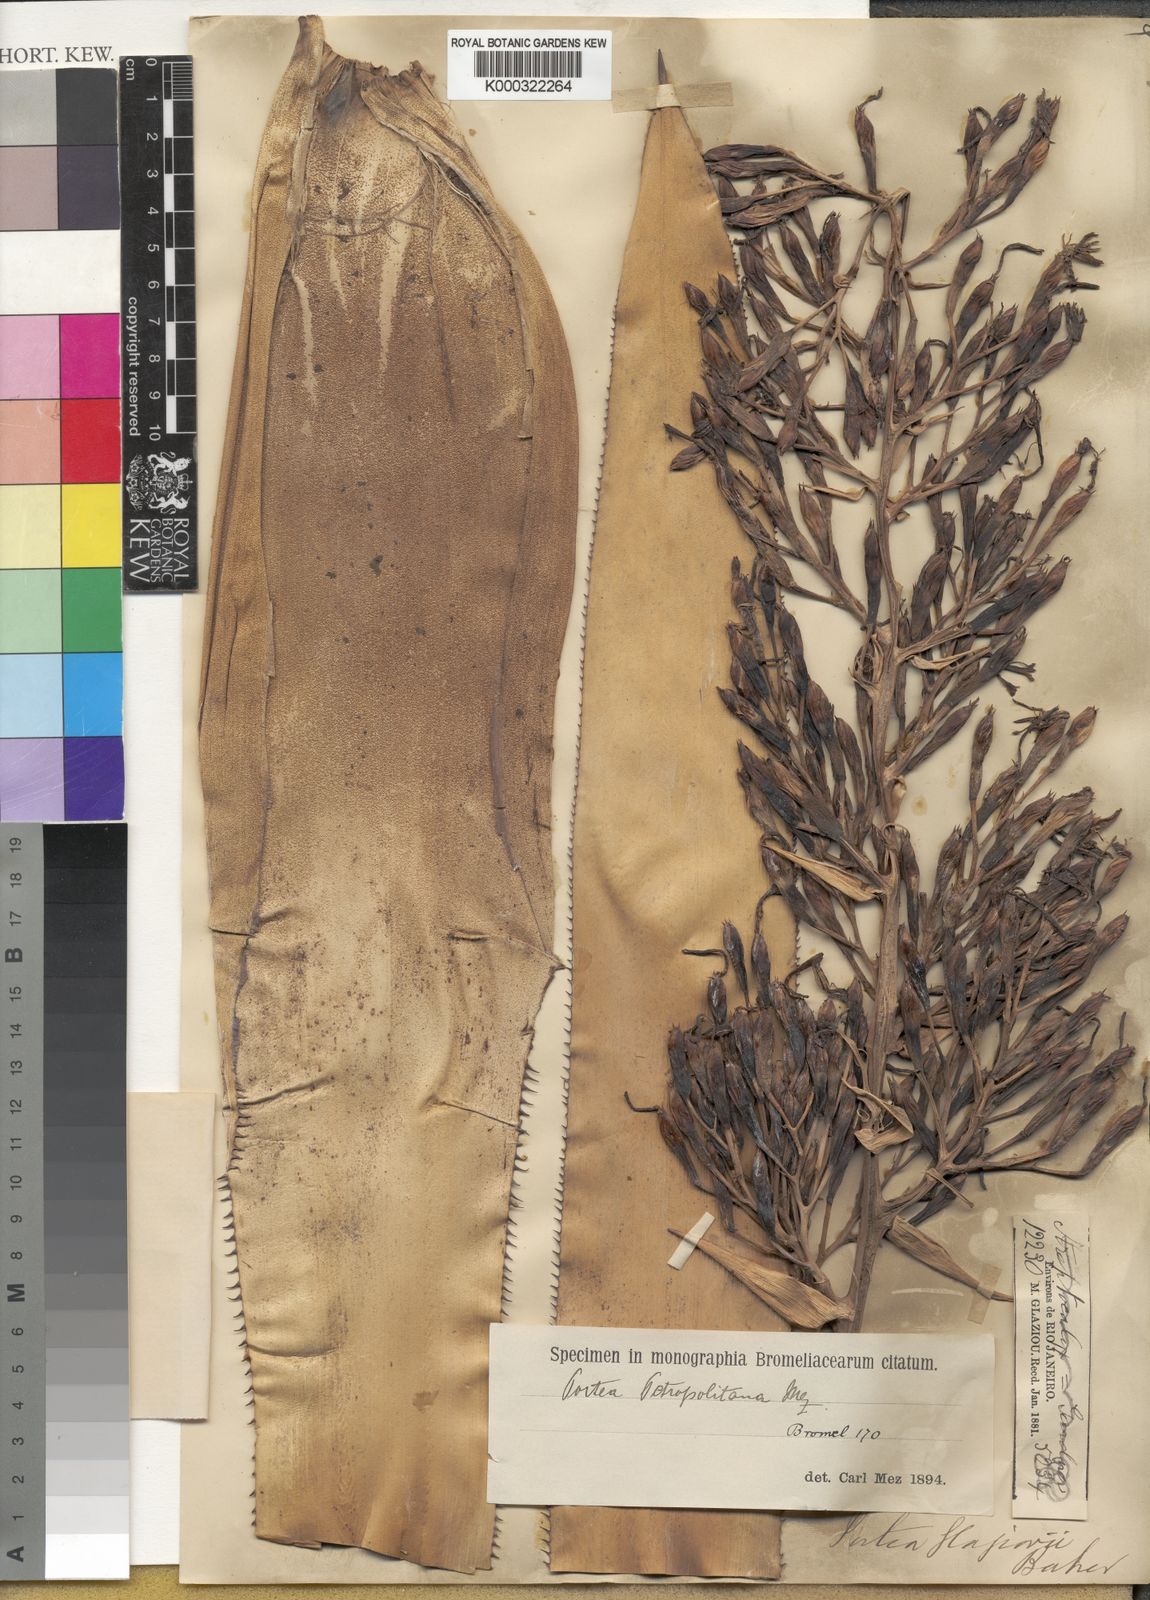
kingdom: Plantae
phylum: Tracheophyta
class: Liliopsida
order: Poales
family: Bromeliaceae
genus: Portea
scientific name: Portea petropolitana
